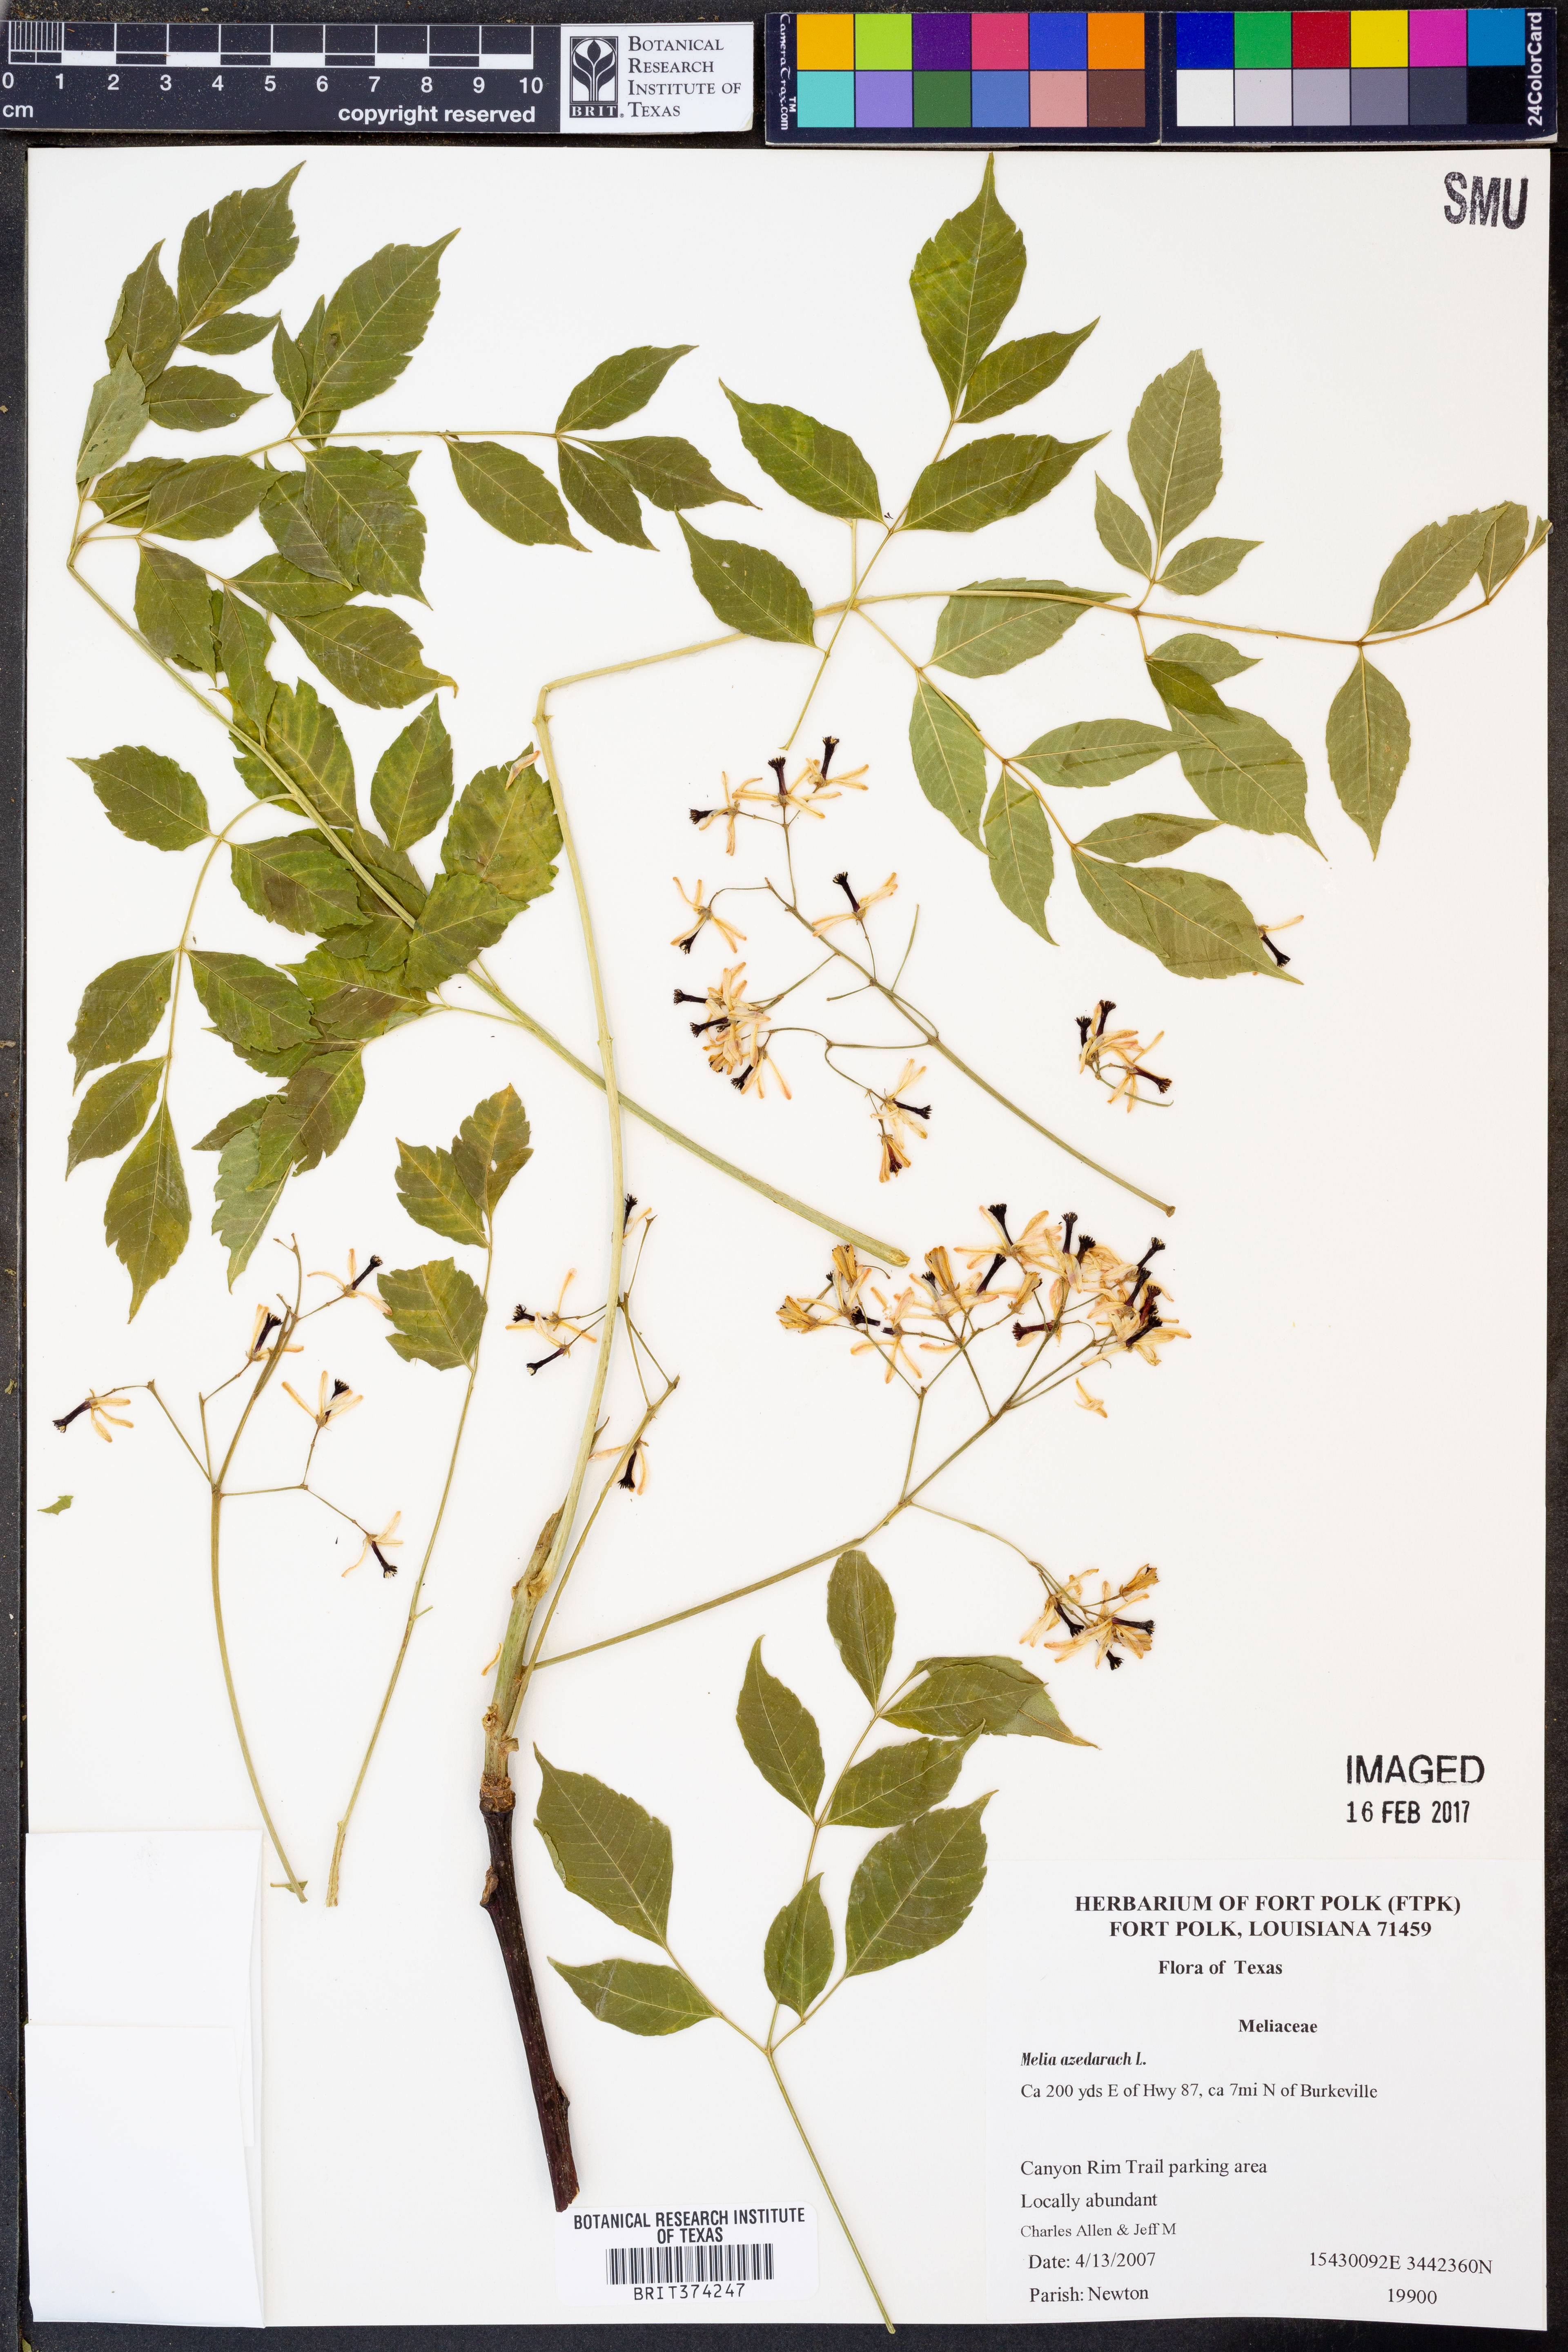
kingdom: Plantae
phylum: Tracheophyta
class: Magnoliopsida
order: Sapindales
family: Meliaceae
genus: Azadirachta
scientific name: Azadirachta indica
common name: Neem
